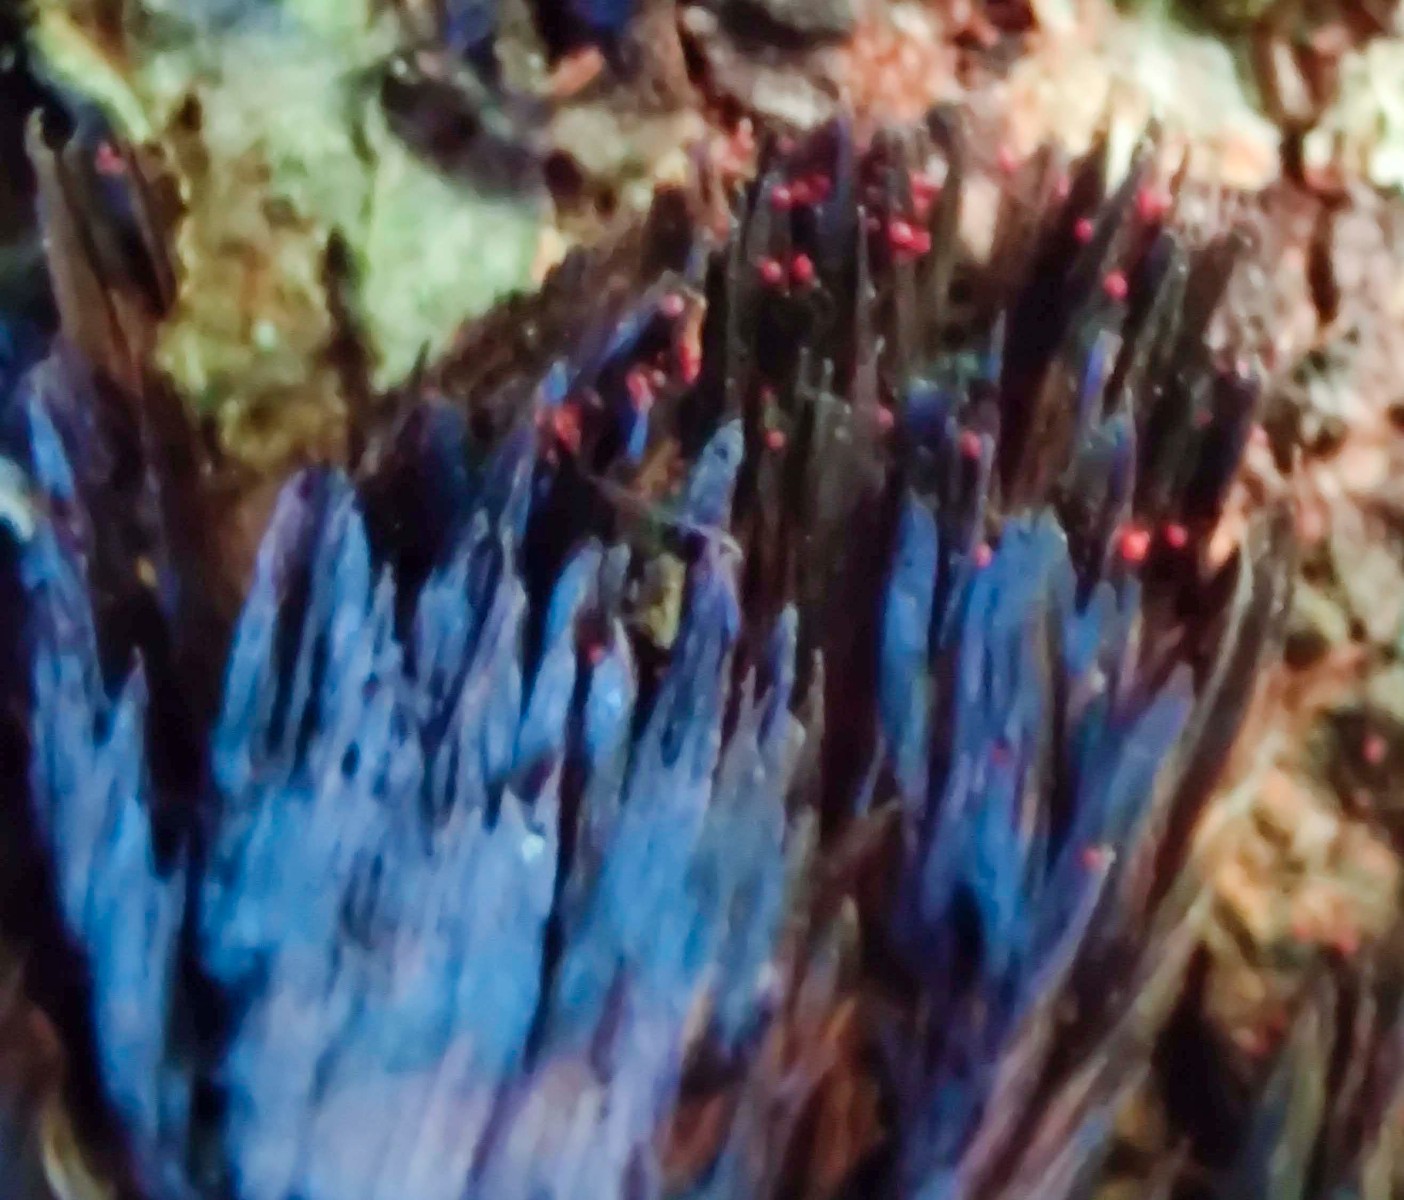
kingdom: Fungi
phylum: Ascomycota
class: Sordariomycetes
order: Hypocreales
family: Nectriaceae
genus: Cosmospora
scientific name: Cosmospora coccinea
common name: spejlpore-cinnobersvamp
